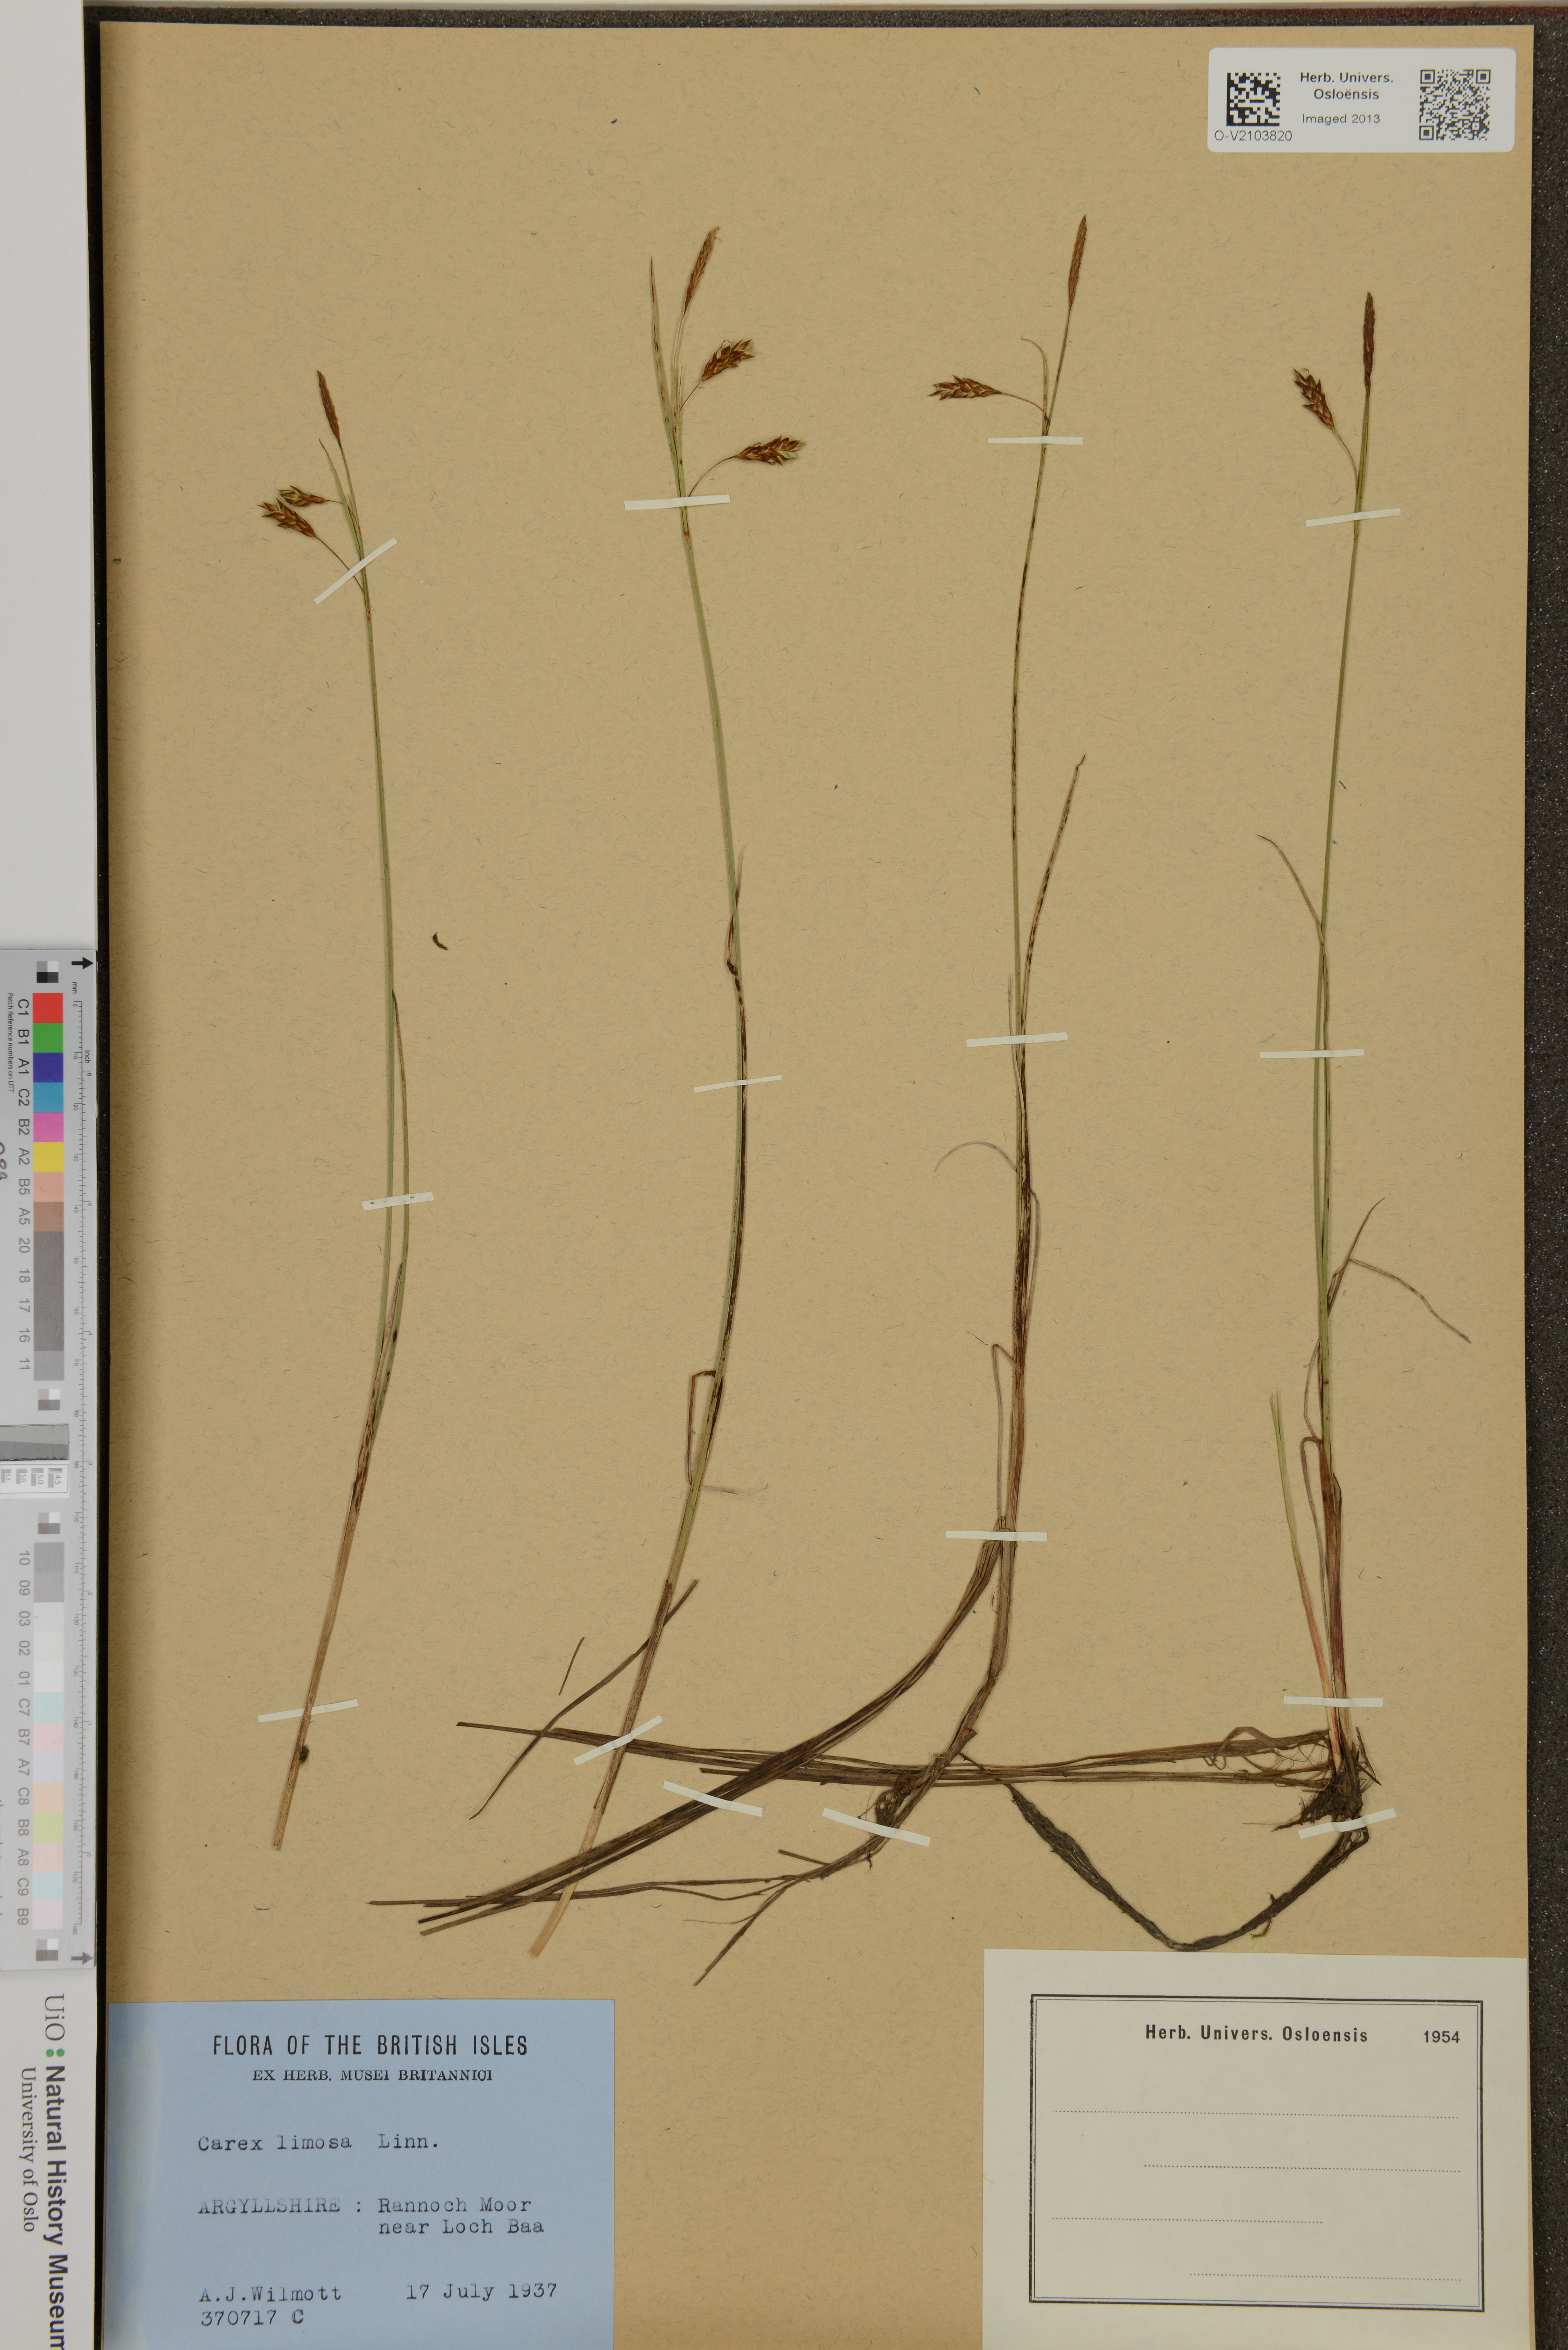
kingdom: Plantae
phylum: Tracheophyta
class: Liliopsida
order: Poales
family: Cyperaceae
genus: Carex
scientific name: Carex limosa
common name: Bog sedge
